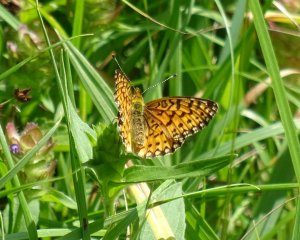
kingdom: Animalia
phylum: Arthropoda
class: Insecta
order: Lepidoptera
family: Nymphalidae
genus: Boloria
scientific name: Boloria selene
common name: Silver-bordered Fritillary
